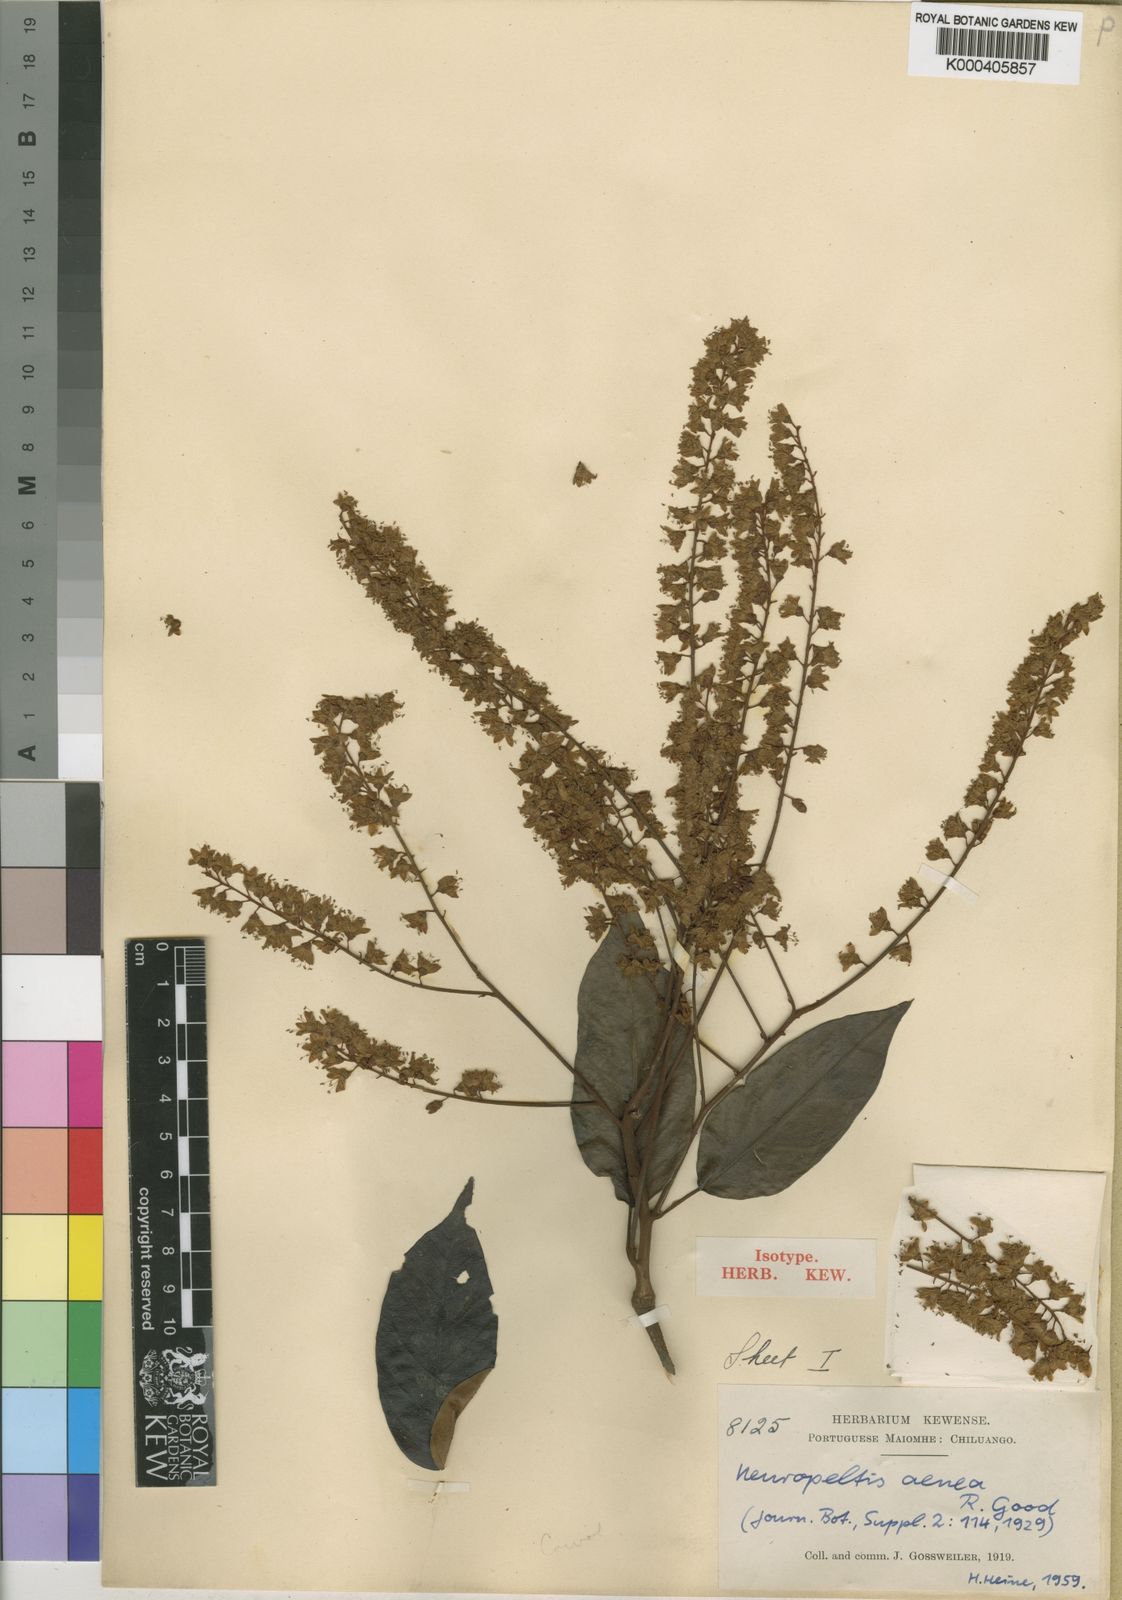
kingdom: Plantae
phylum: Tracheophyta
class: Magnoliopsida
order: Solanales
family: Convolvulaceae
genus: Neuropeltis
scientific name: Neuropeltis aenea
